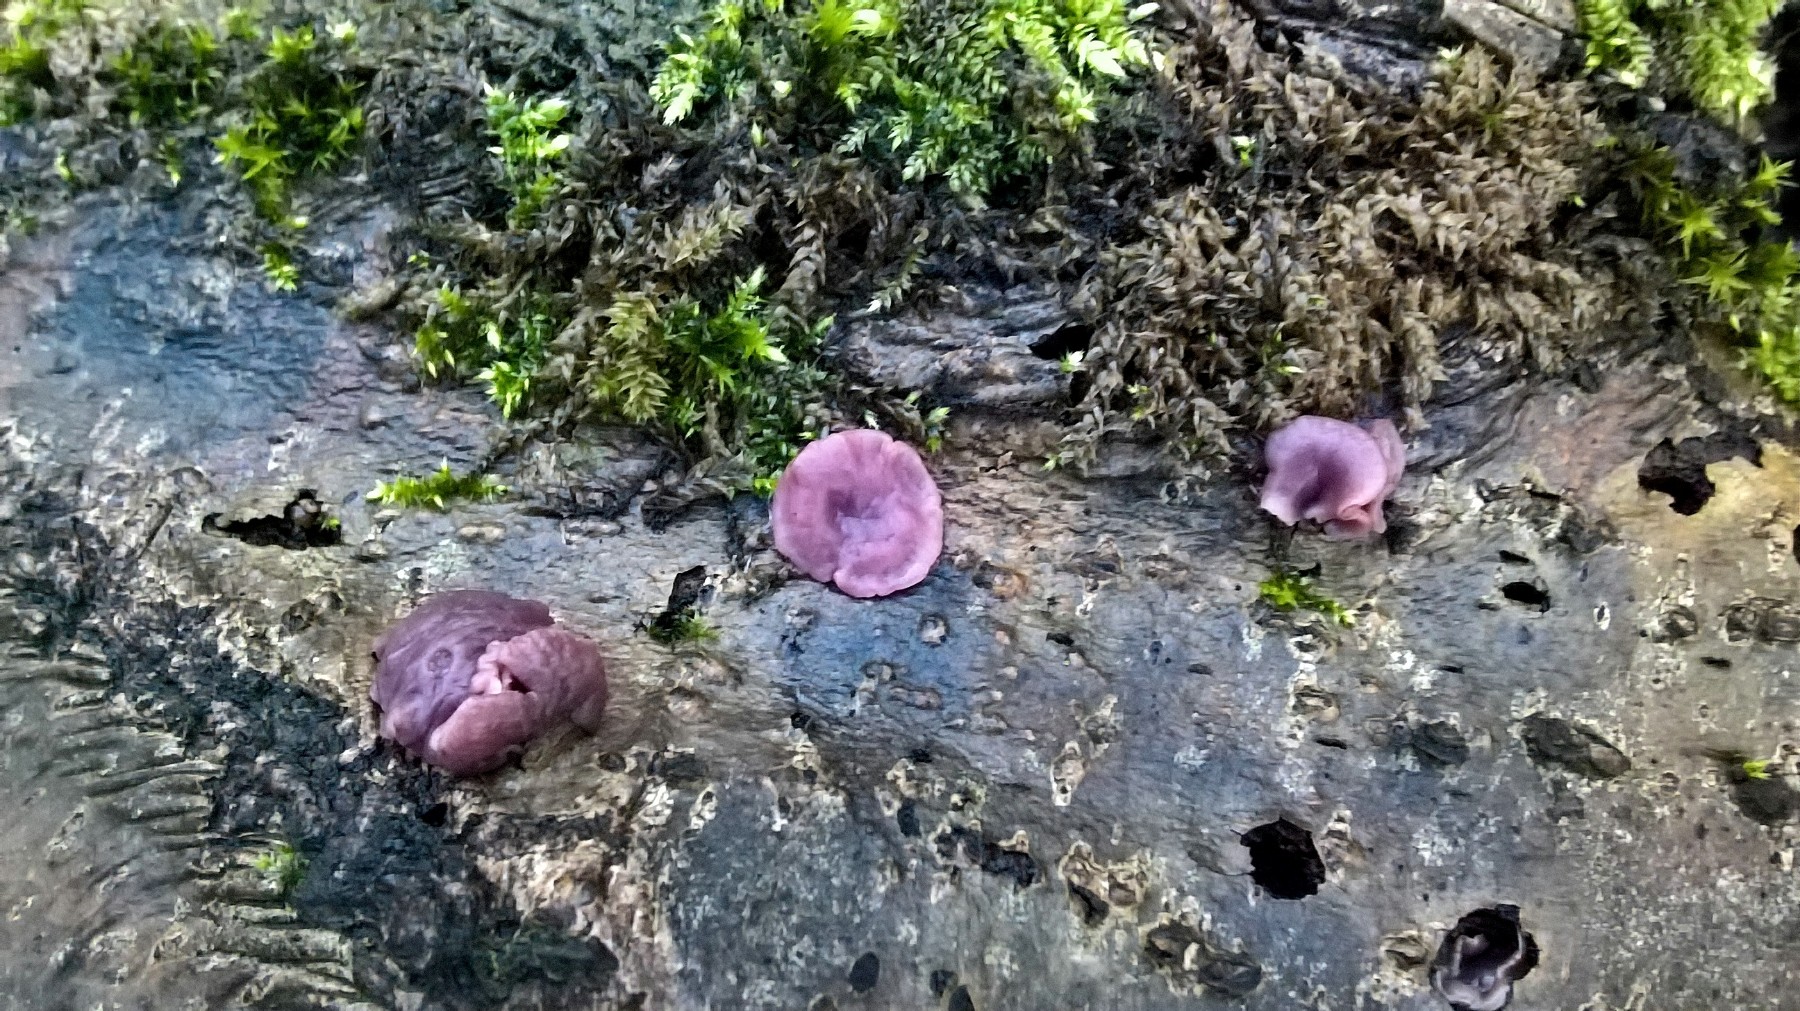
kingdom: Fungi
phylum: Ascomycota
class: Leotiomycetes
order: Helotiales
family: Gelatinodiscaceae
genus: Ascocoryne
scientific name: Ascocoryne cylichnium
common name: stor sejskive
